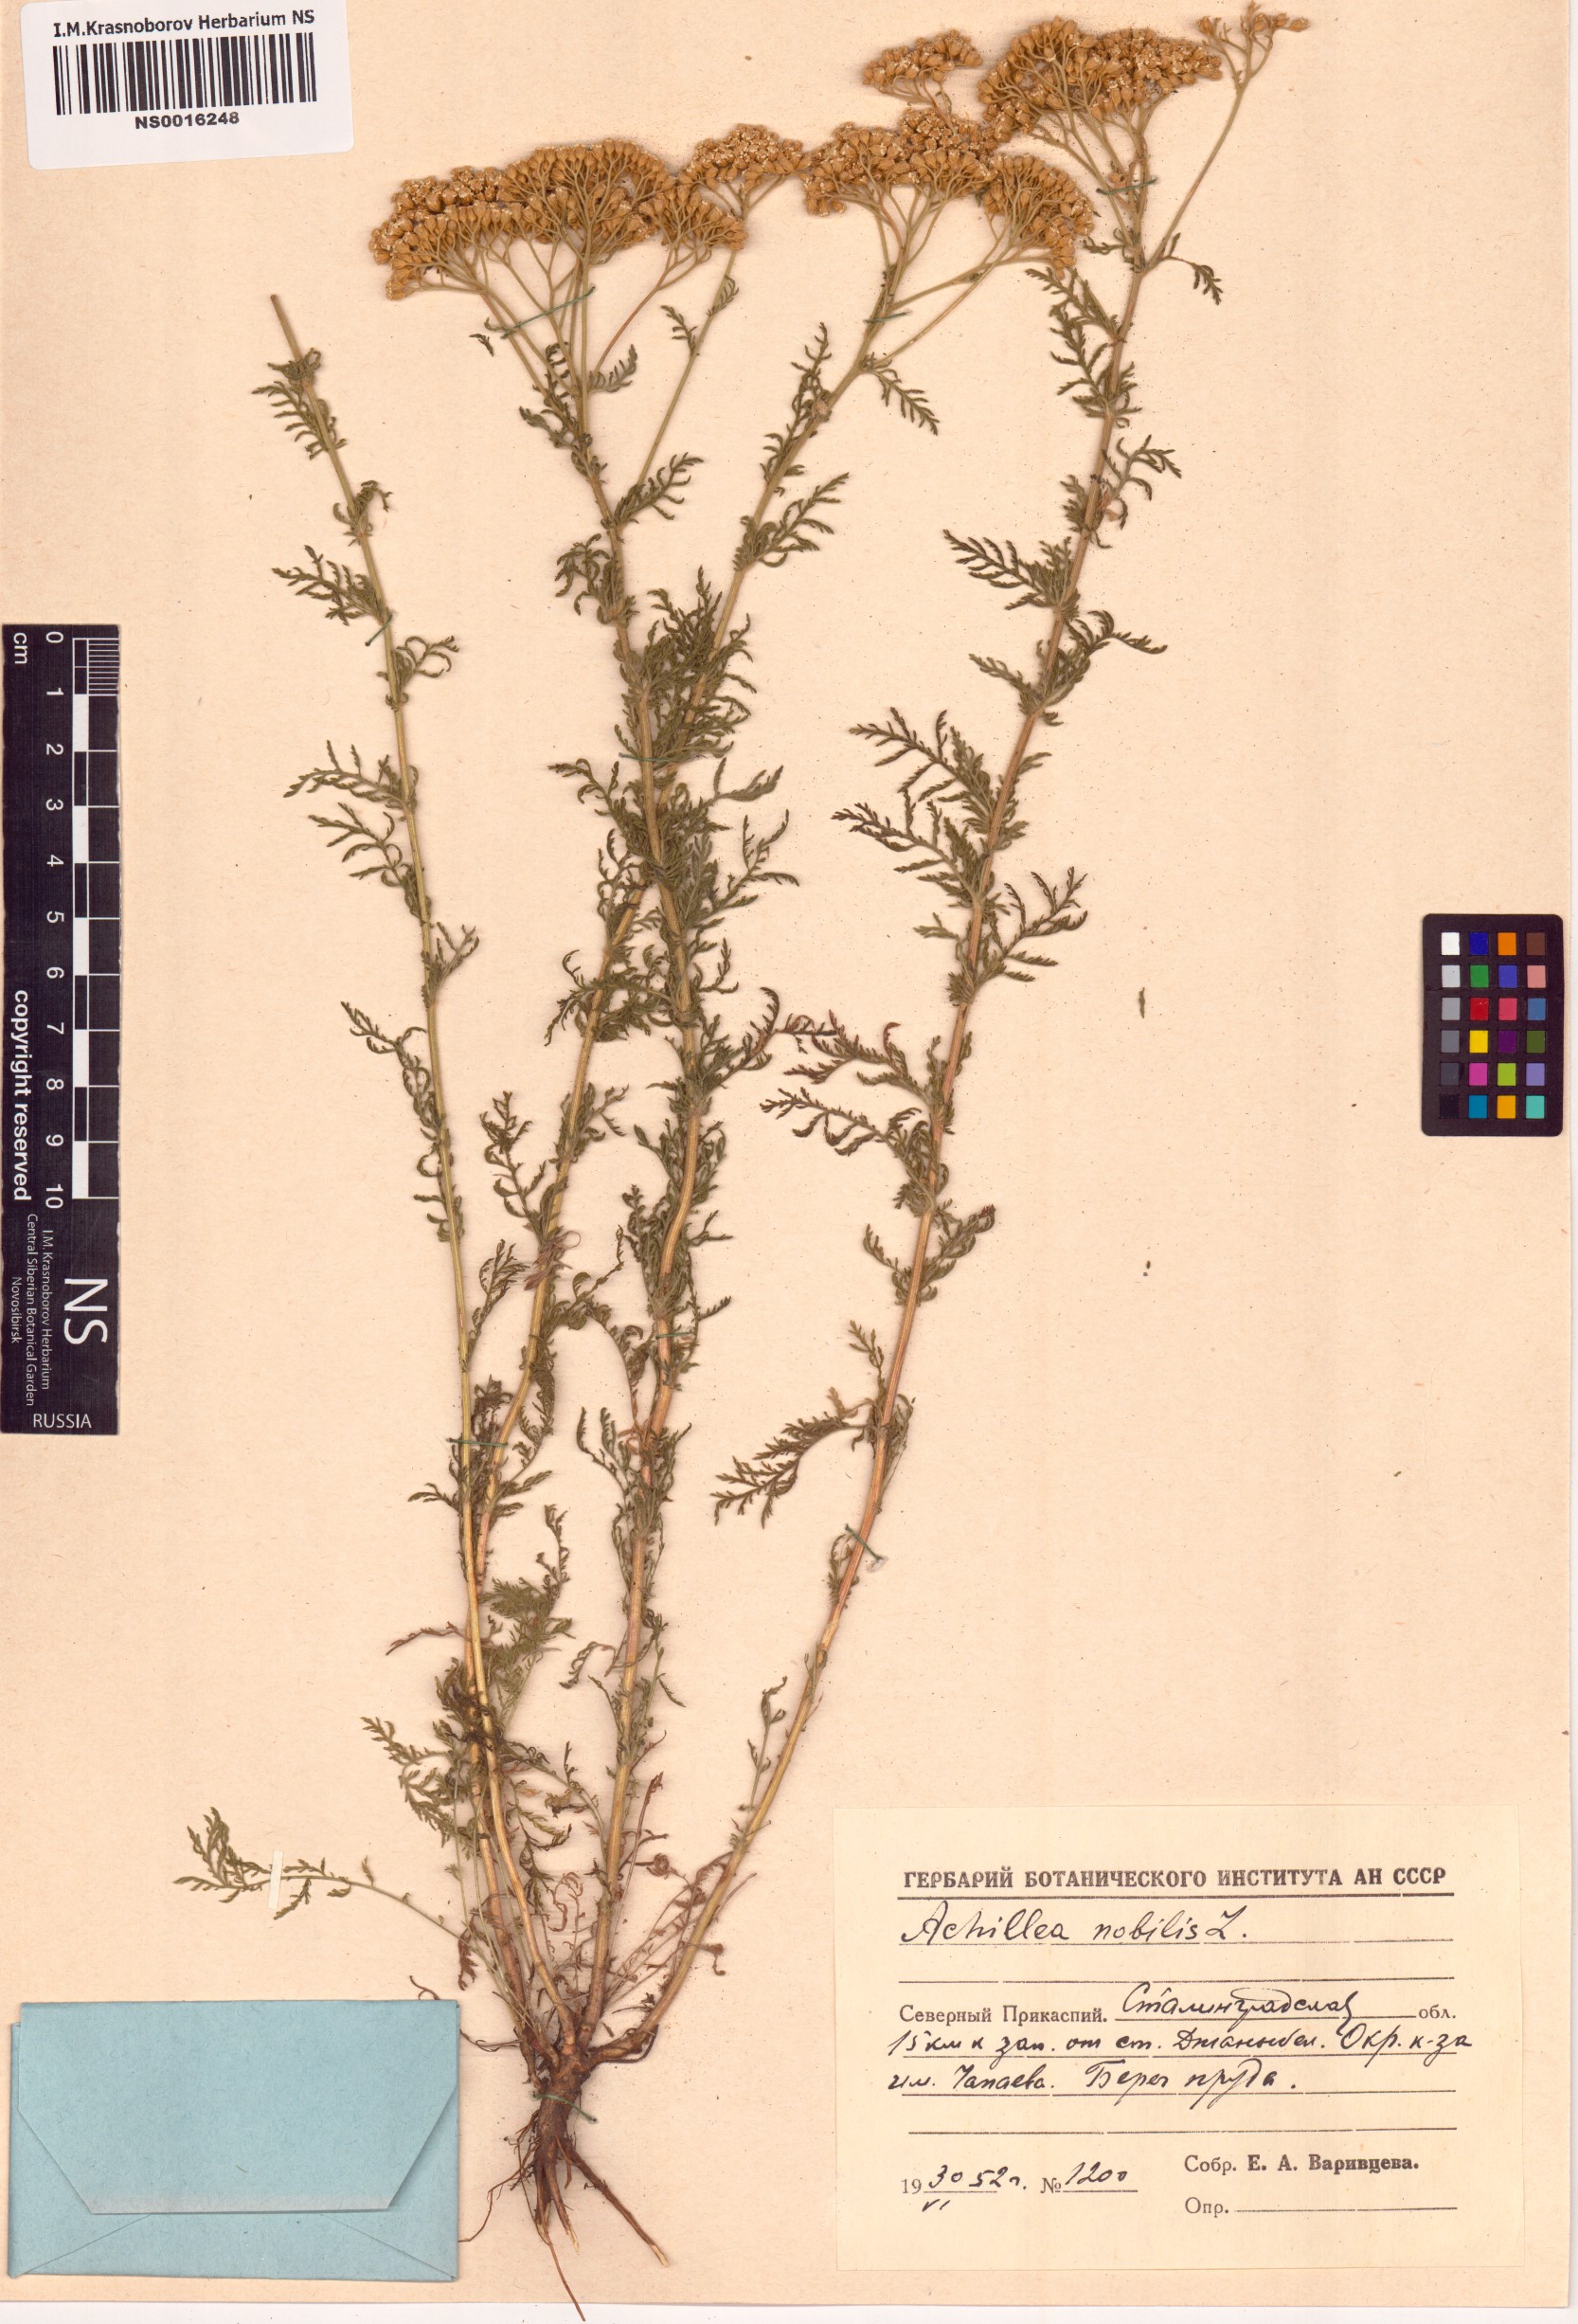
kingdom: Plantae
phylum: Tracheophyta
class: Magnoliopsida
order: Asterales
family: Asteraceae
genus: Achillea
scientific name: Achillea nobilis
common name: Noble yarrow
